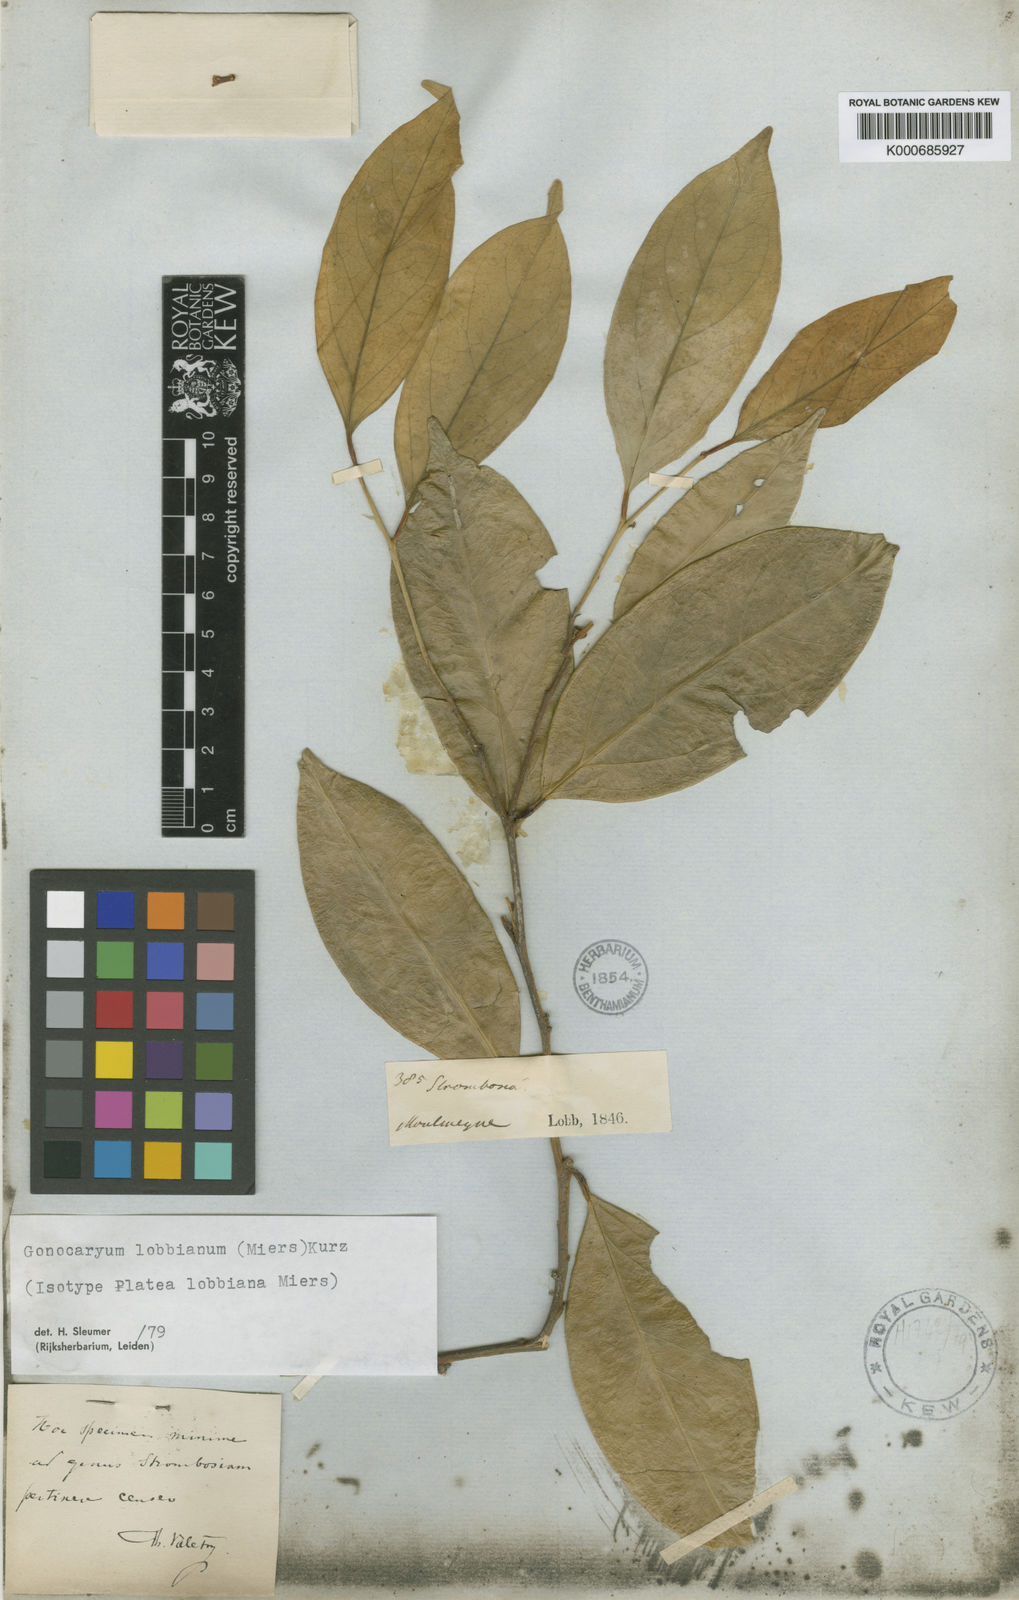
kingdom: Plantae
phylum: Tracheophyta
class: Magnoliopsida
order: Cardiopteridales
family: Cardiopteridaceae
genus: Gonocaryum
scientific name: Gonocaryum lobbianum
